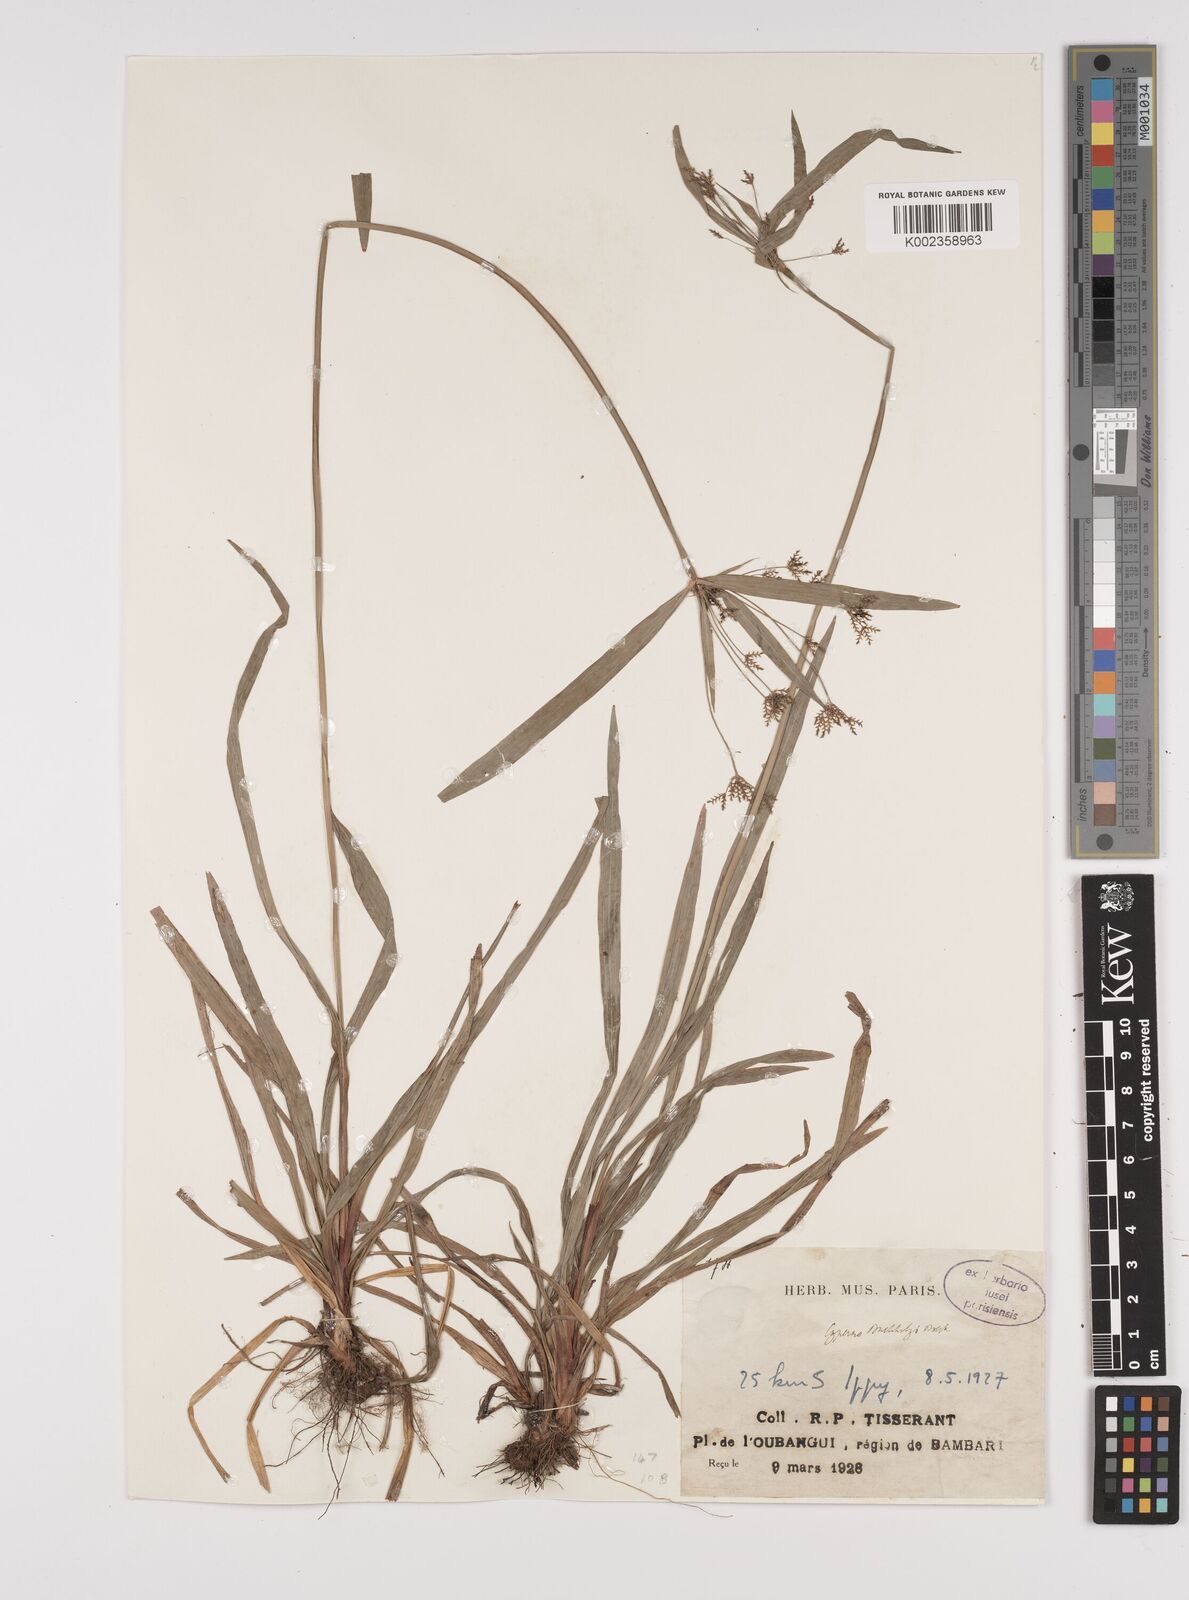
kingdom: Plantae
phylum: Tracheophyta
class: Liliopsida
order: Poales
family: Cyperaceae
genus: Cyperus
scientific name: Cyperus diffusus
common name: Dwarf umbrella grass
